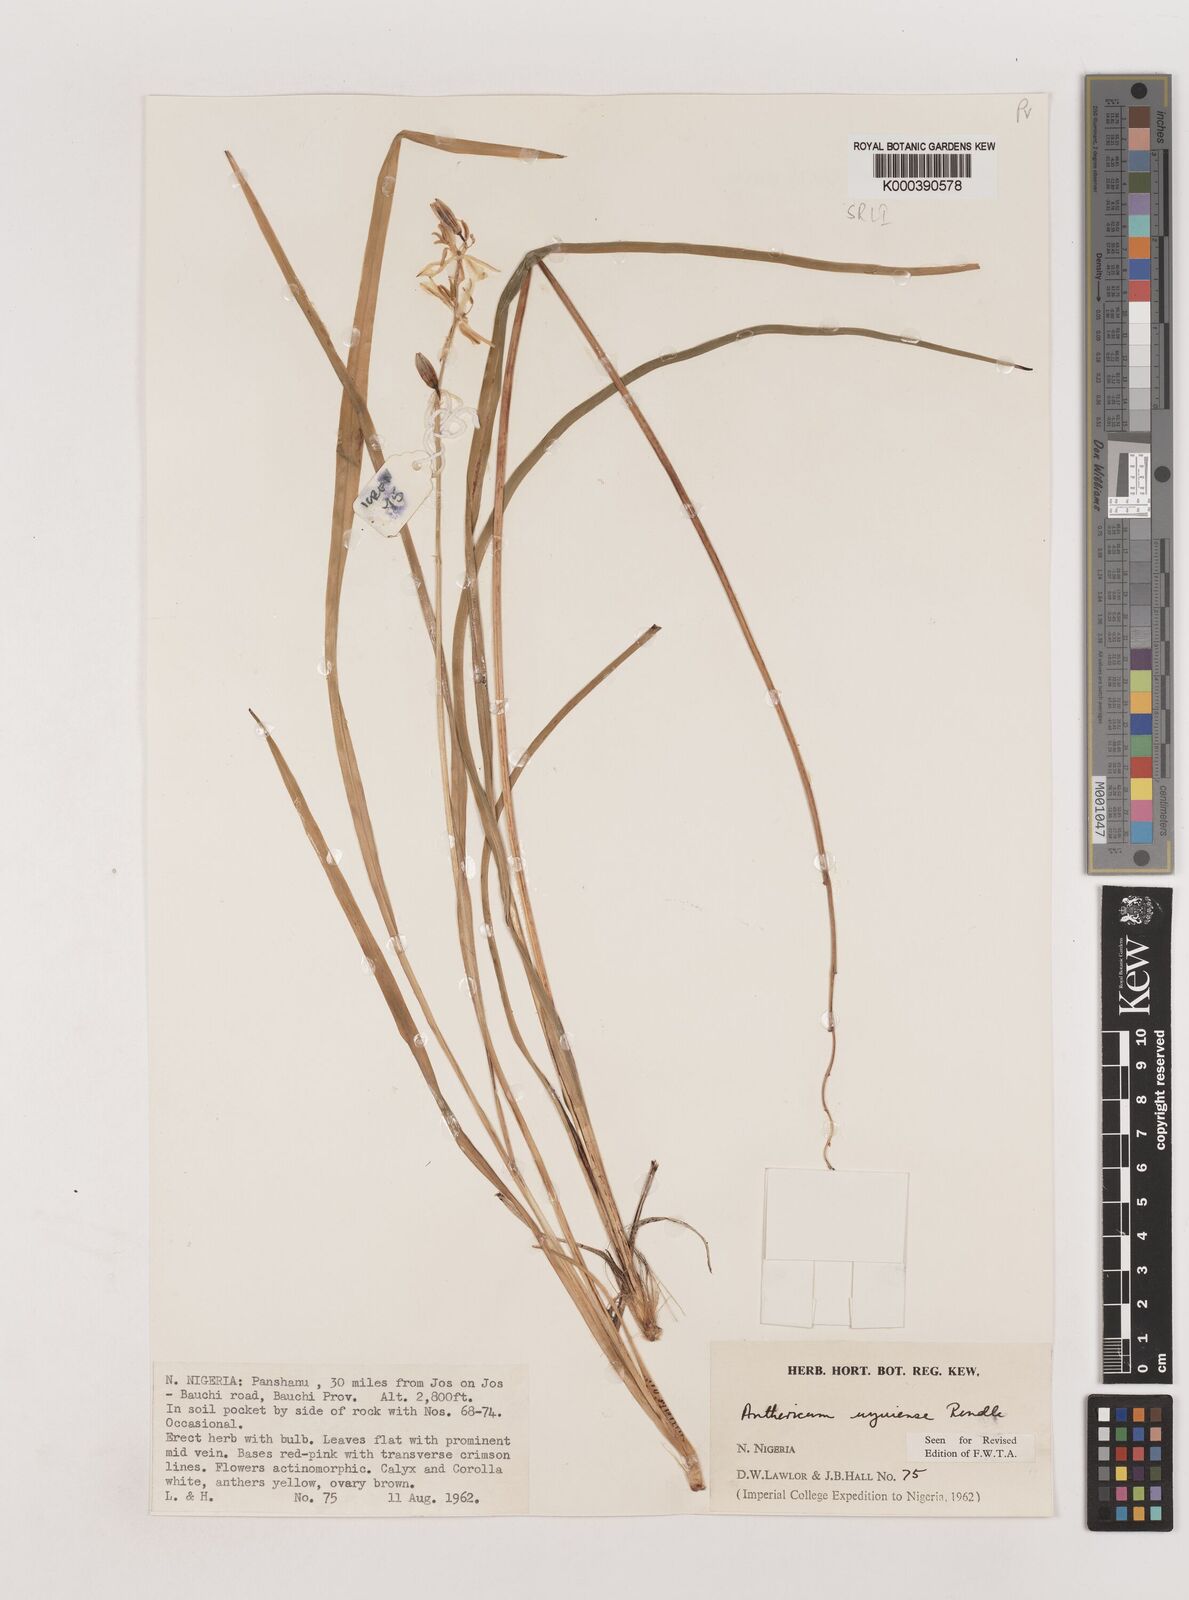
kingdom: Plantae
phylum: Tracheophyta
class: Liliopsida
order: Asparagales
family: Asparagaceae
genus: Chlorophytum
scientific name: Chlorophytum cameronii
